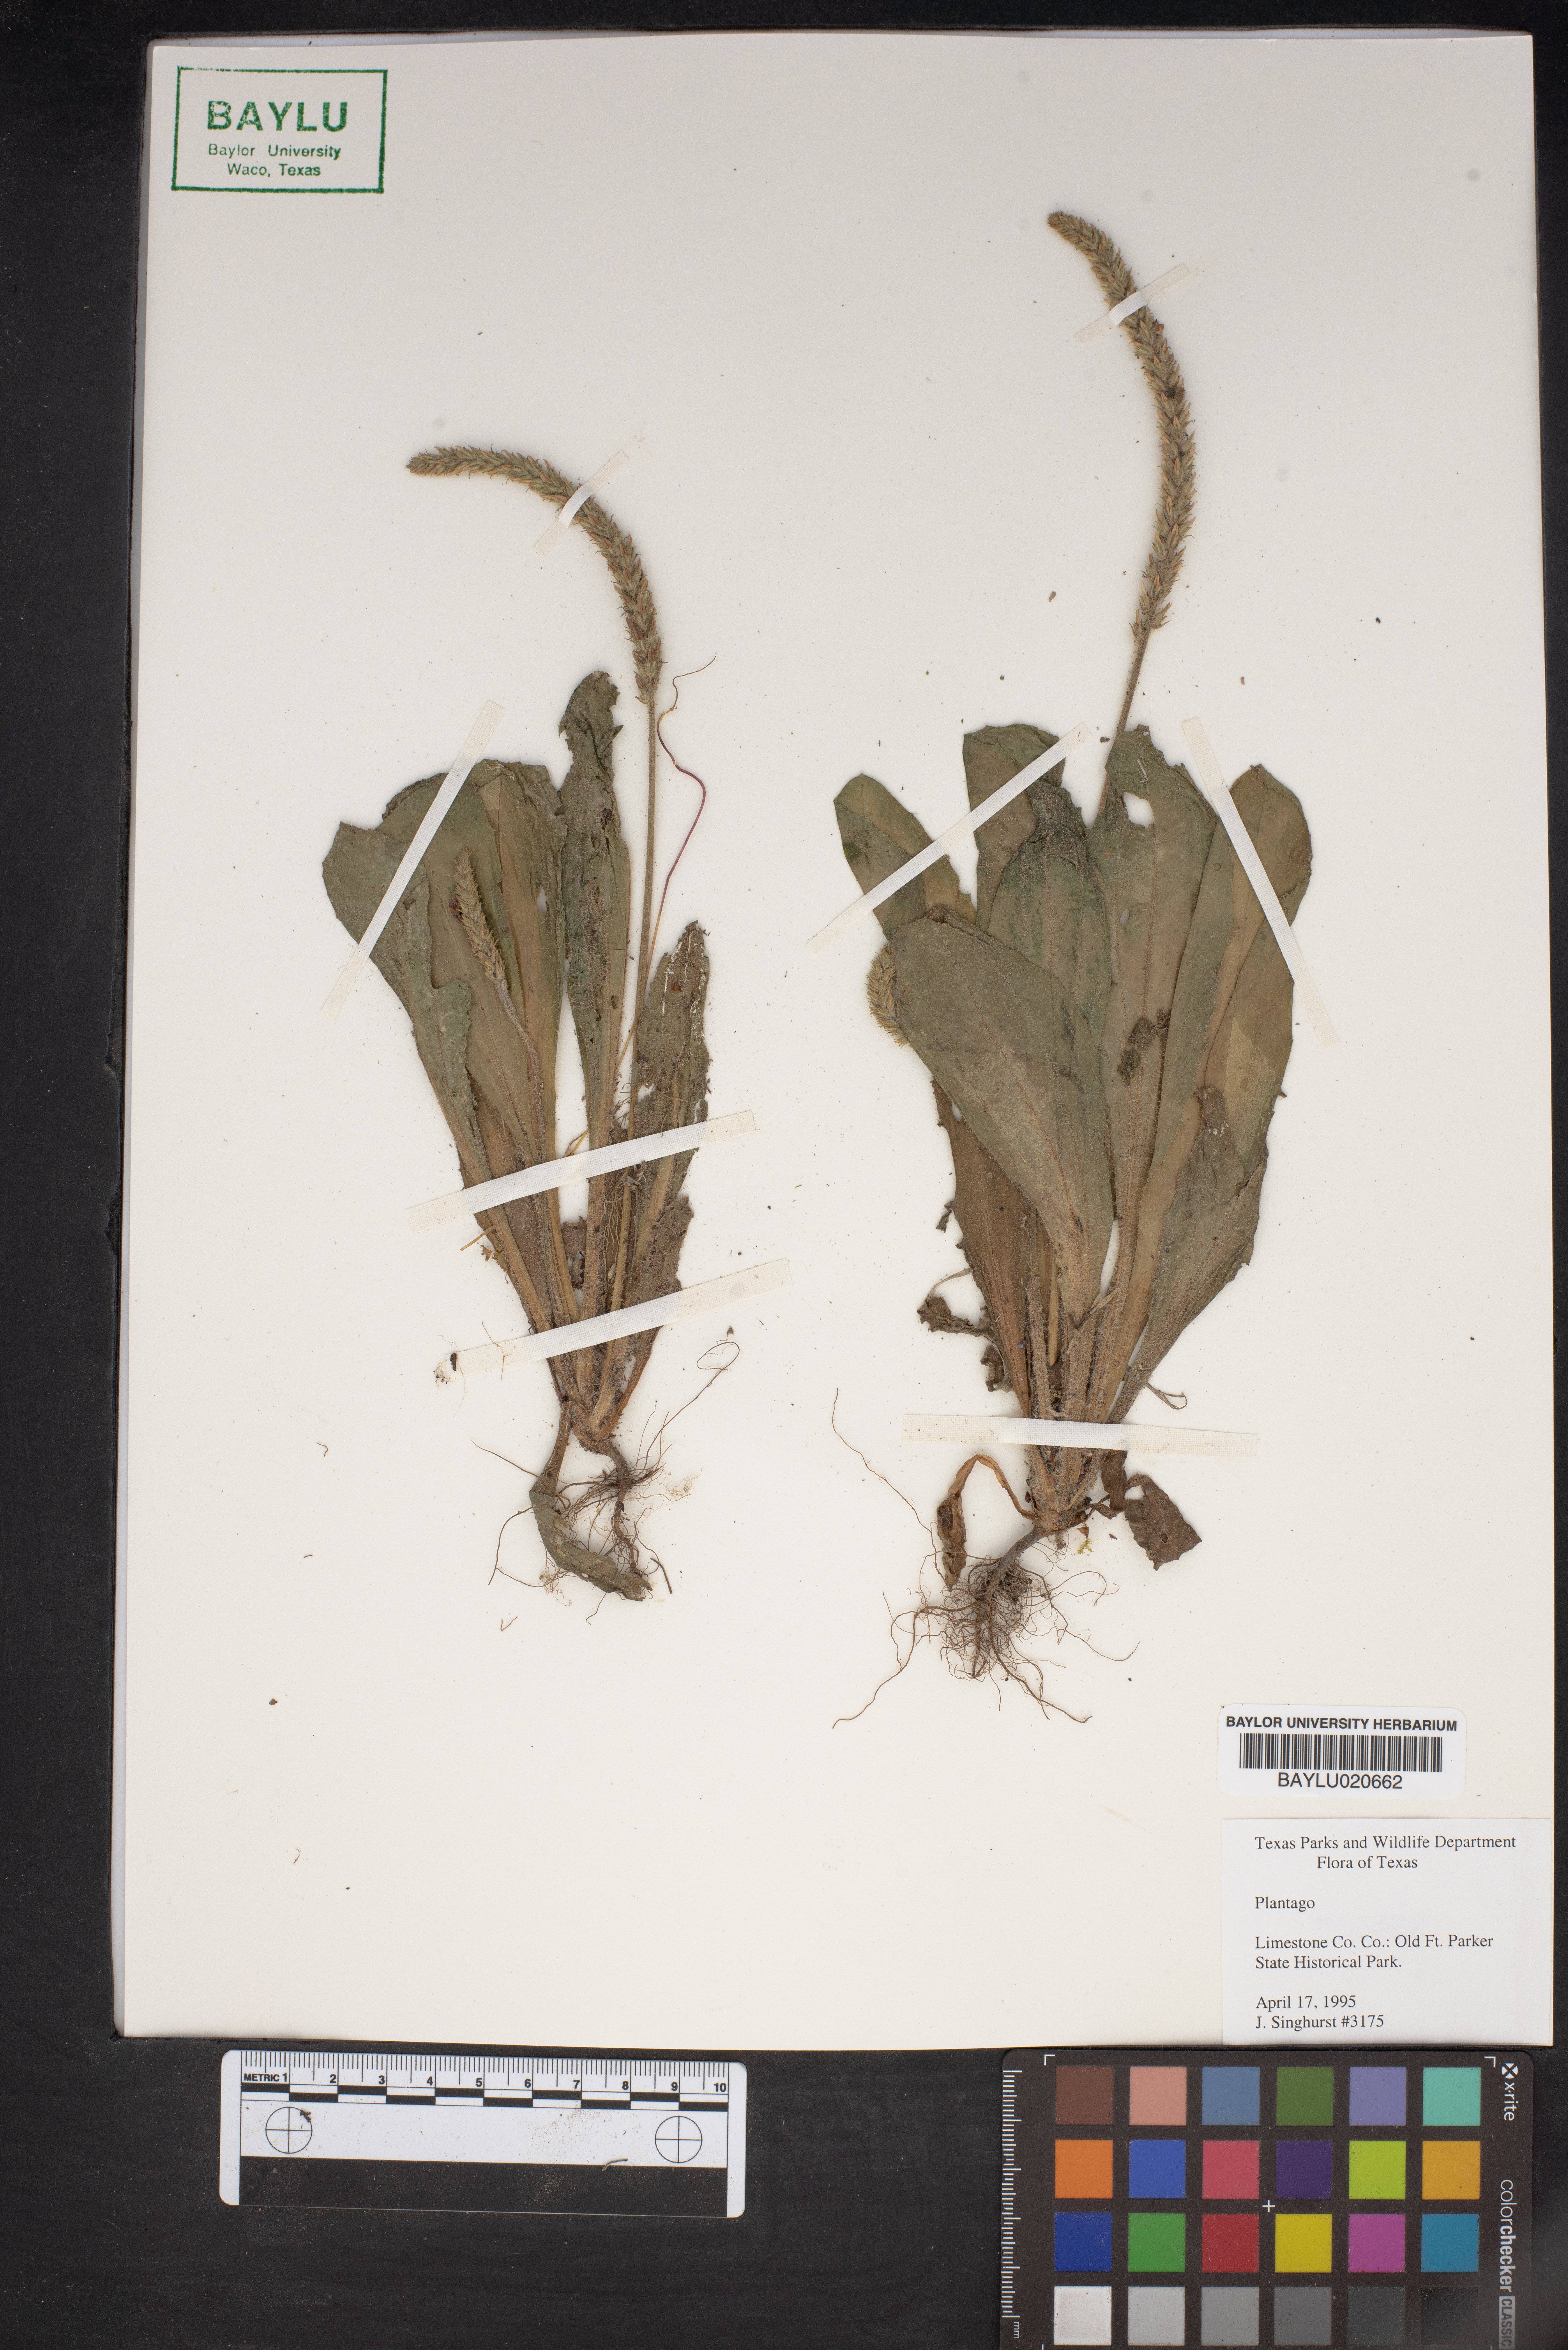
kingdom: Plantae
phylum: Tracheophyta
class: Magnoliopsida
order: Lamiales
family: Plantaginaceae
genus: Plantago
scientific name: Plantago
